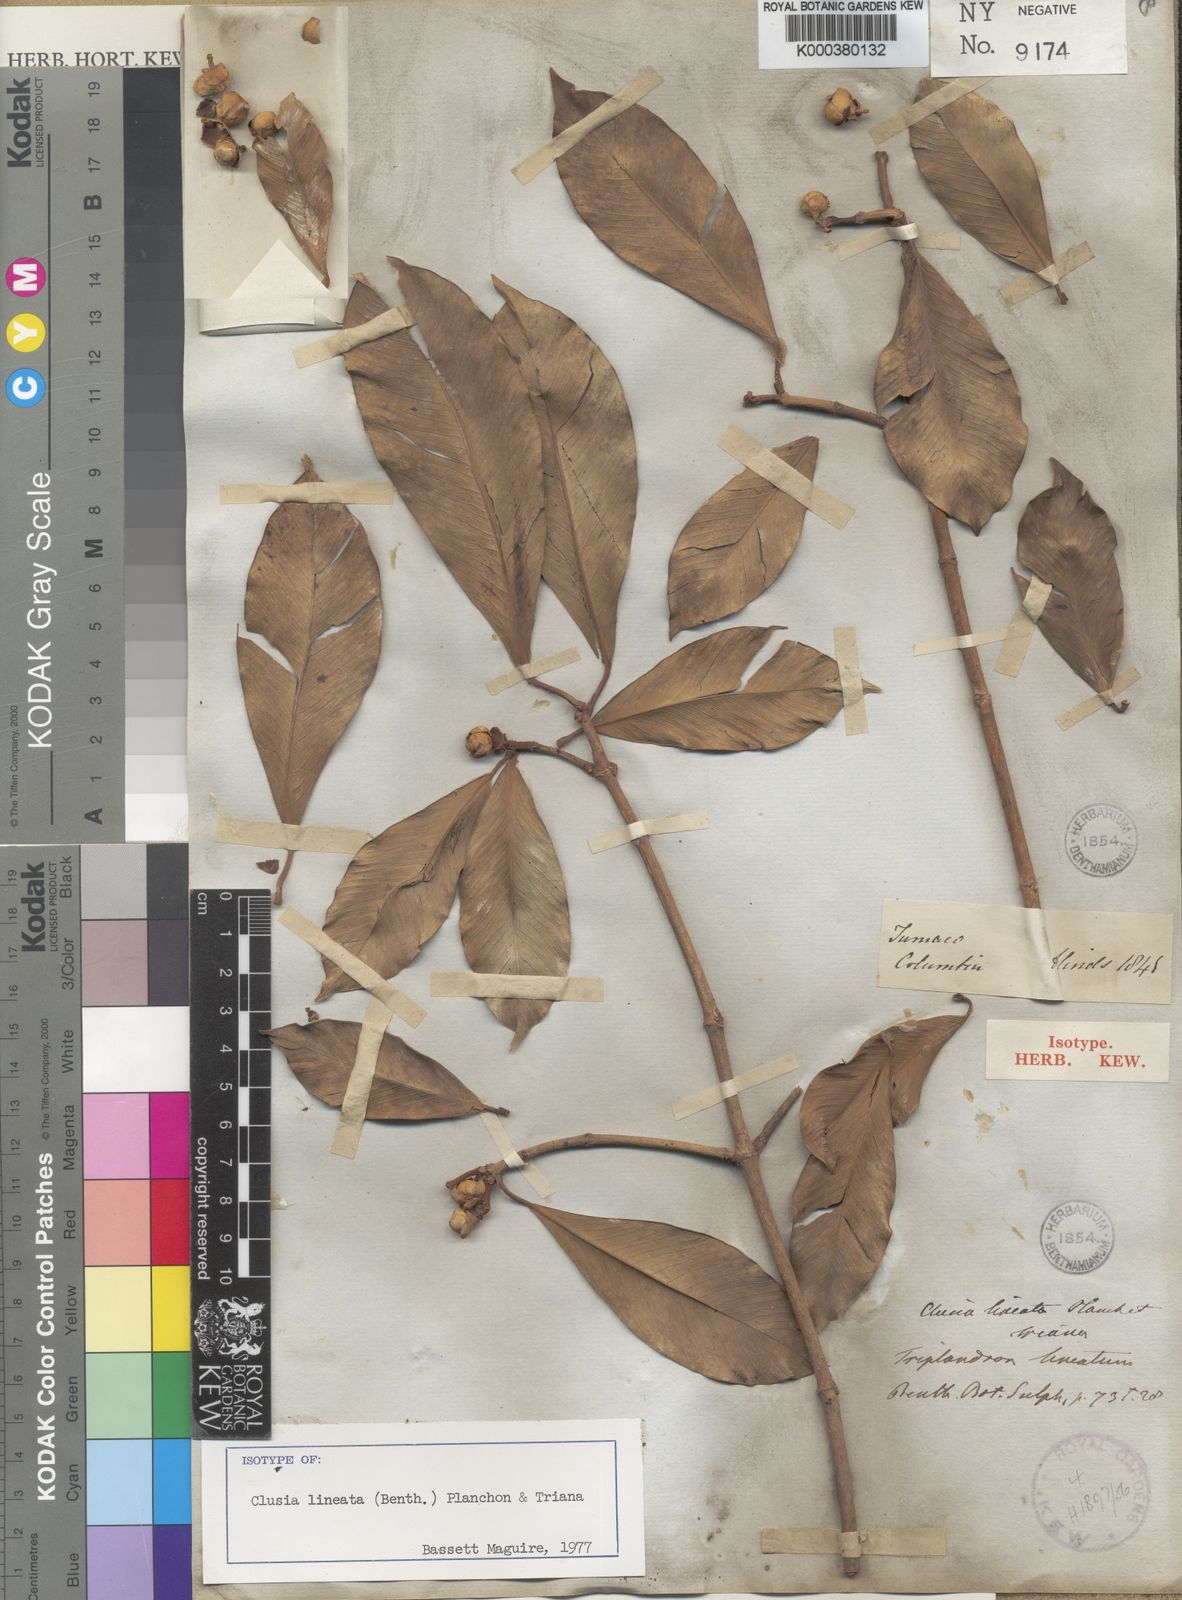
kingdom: Plantae
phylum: Tracheophyta
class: Magnoliopsida
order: Malpighiales
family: Clusiaceae
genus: Clusia
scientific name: Clusia lineata
